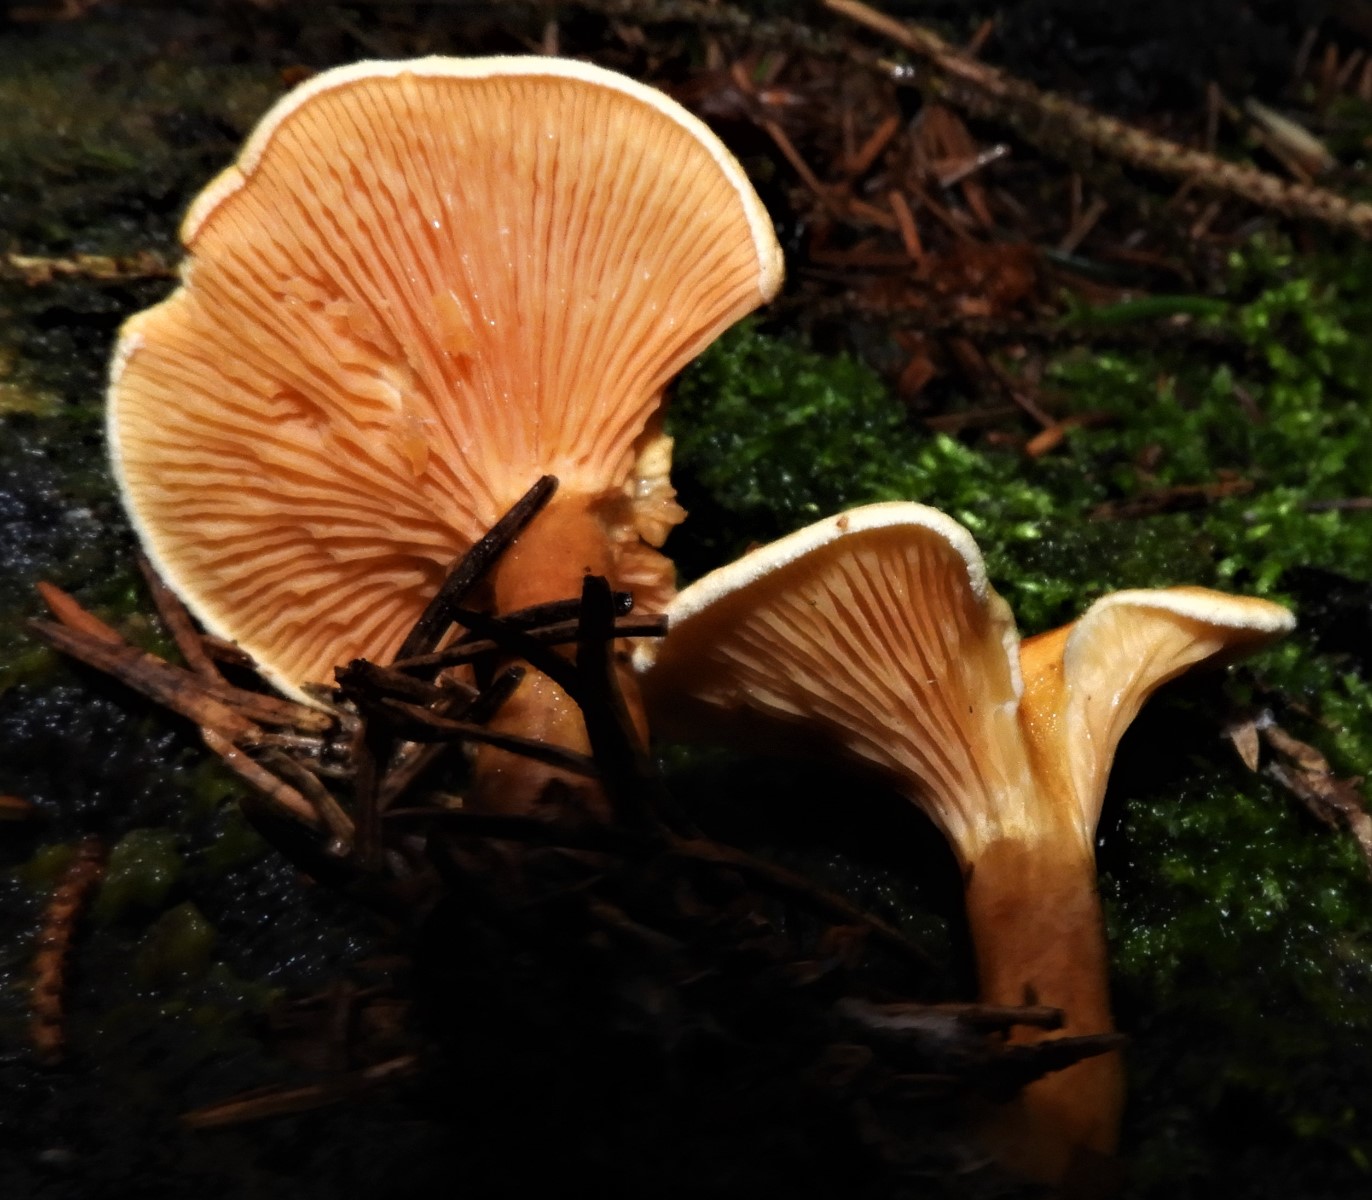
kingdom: Fungi
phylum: Basidiomycota
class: Agaricomycetes
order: Boletales
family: Hygrophoropsidaceae
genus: Hygrophoropsis
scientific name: Hygrophoropsis aurantiaca
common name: almindelig orangekantarel
